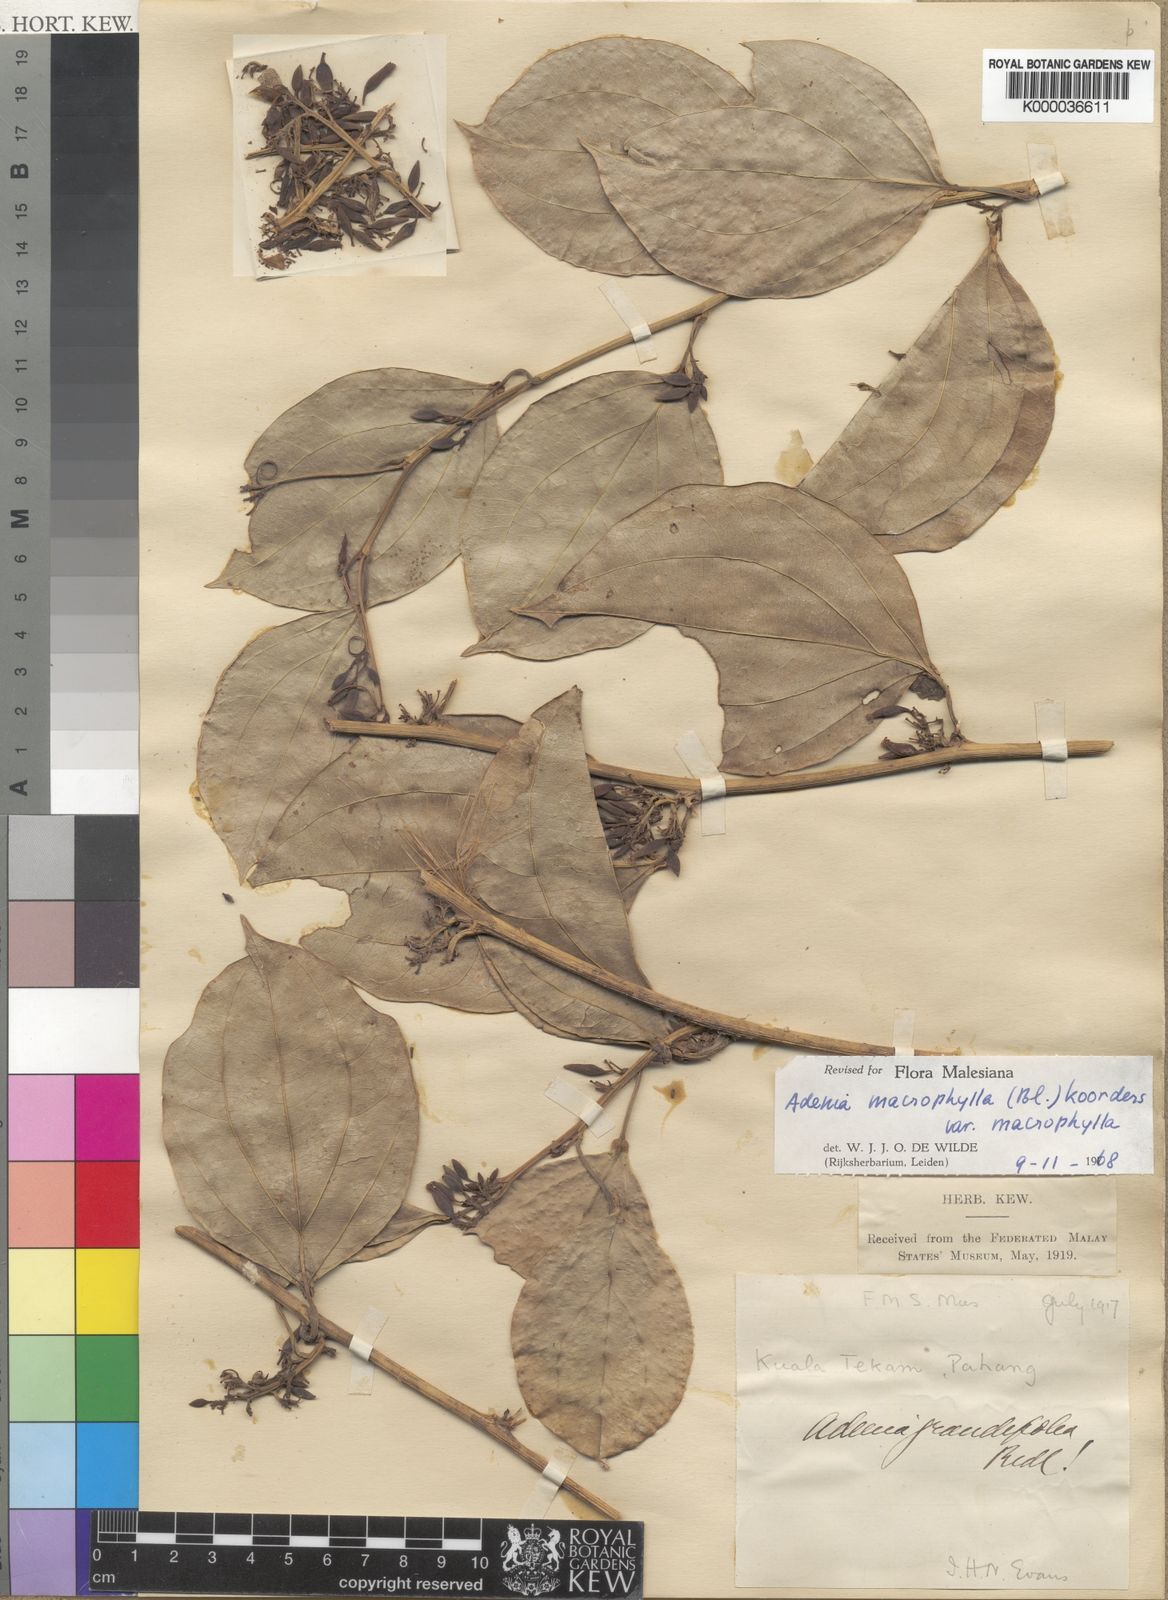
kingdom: Plantae
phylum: Tracheophyta
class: Magnoliopsida
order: Malpighiales
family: Passifloraceae
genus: Adenia
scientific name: Adenia macrophylla
